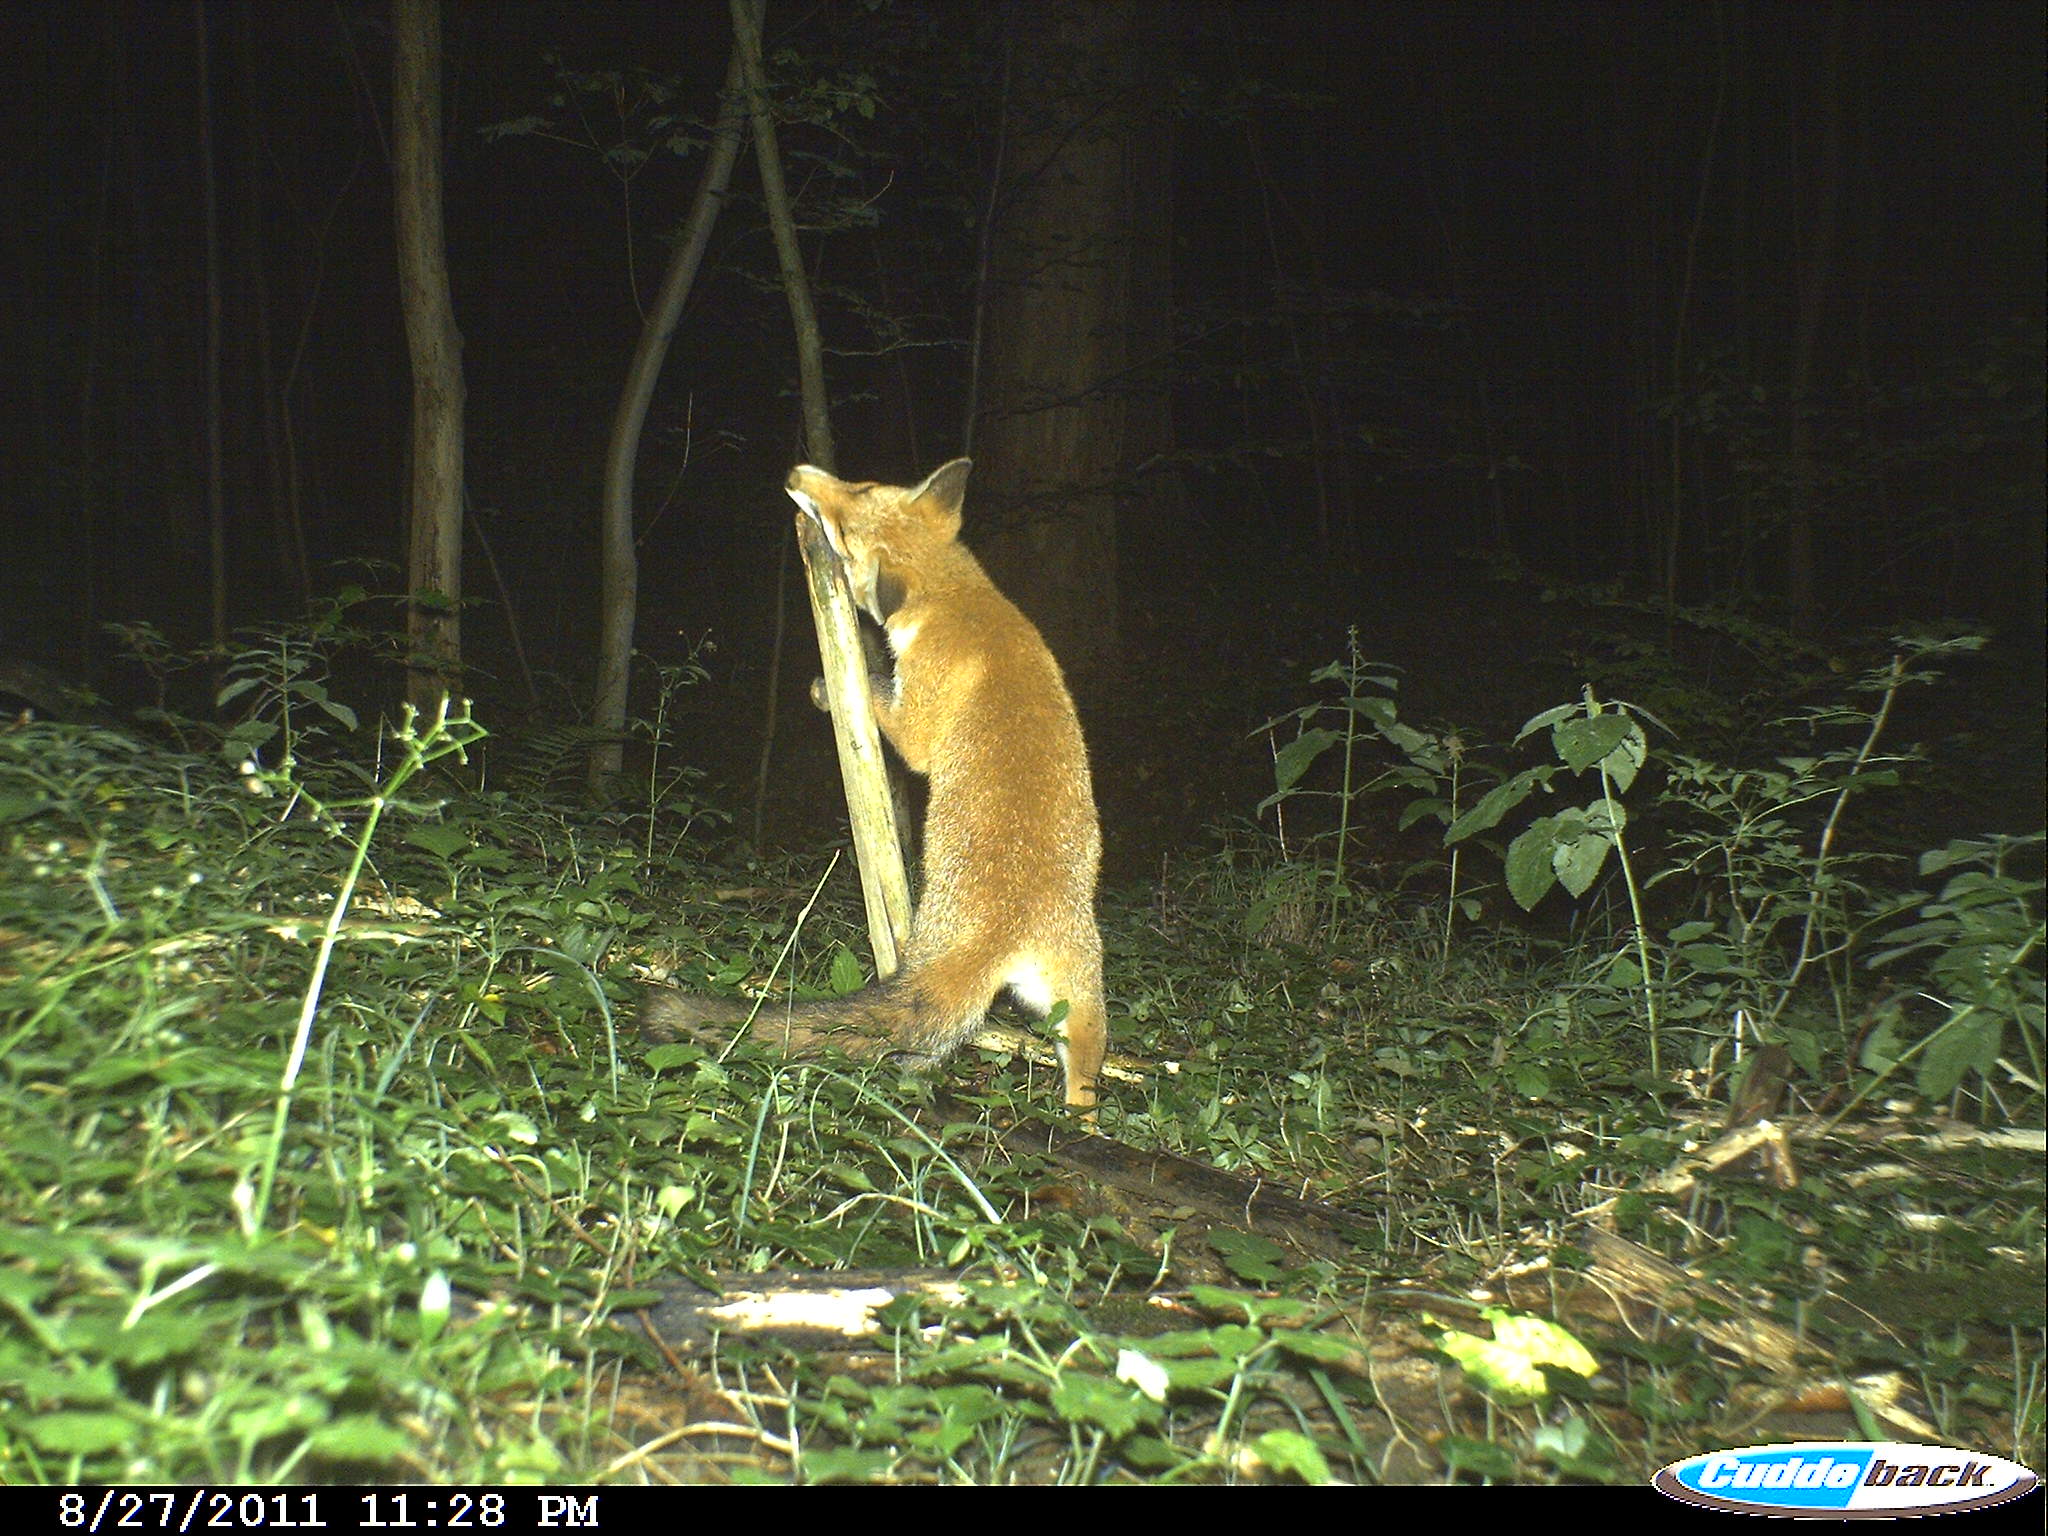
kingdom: Animalia
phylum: Chordata
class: Mammalia
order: Carnivora
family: Canidae
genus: Vulpes
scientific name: Vulpes vulpes
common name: Red fox
